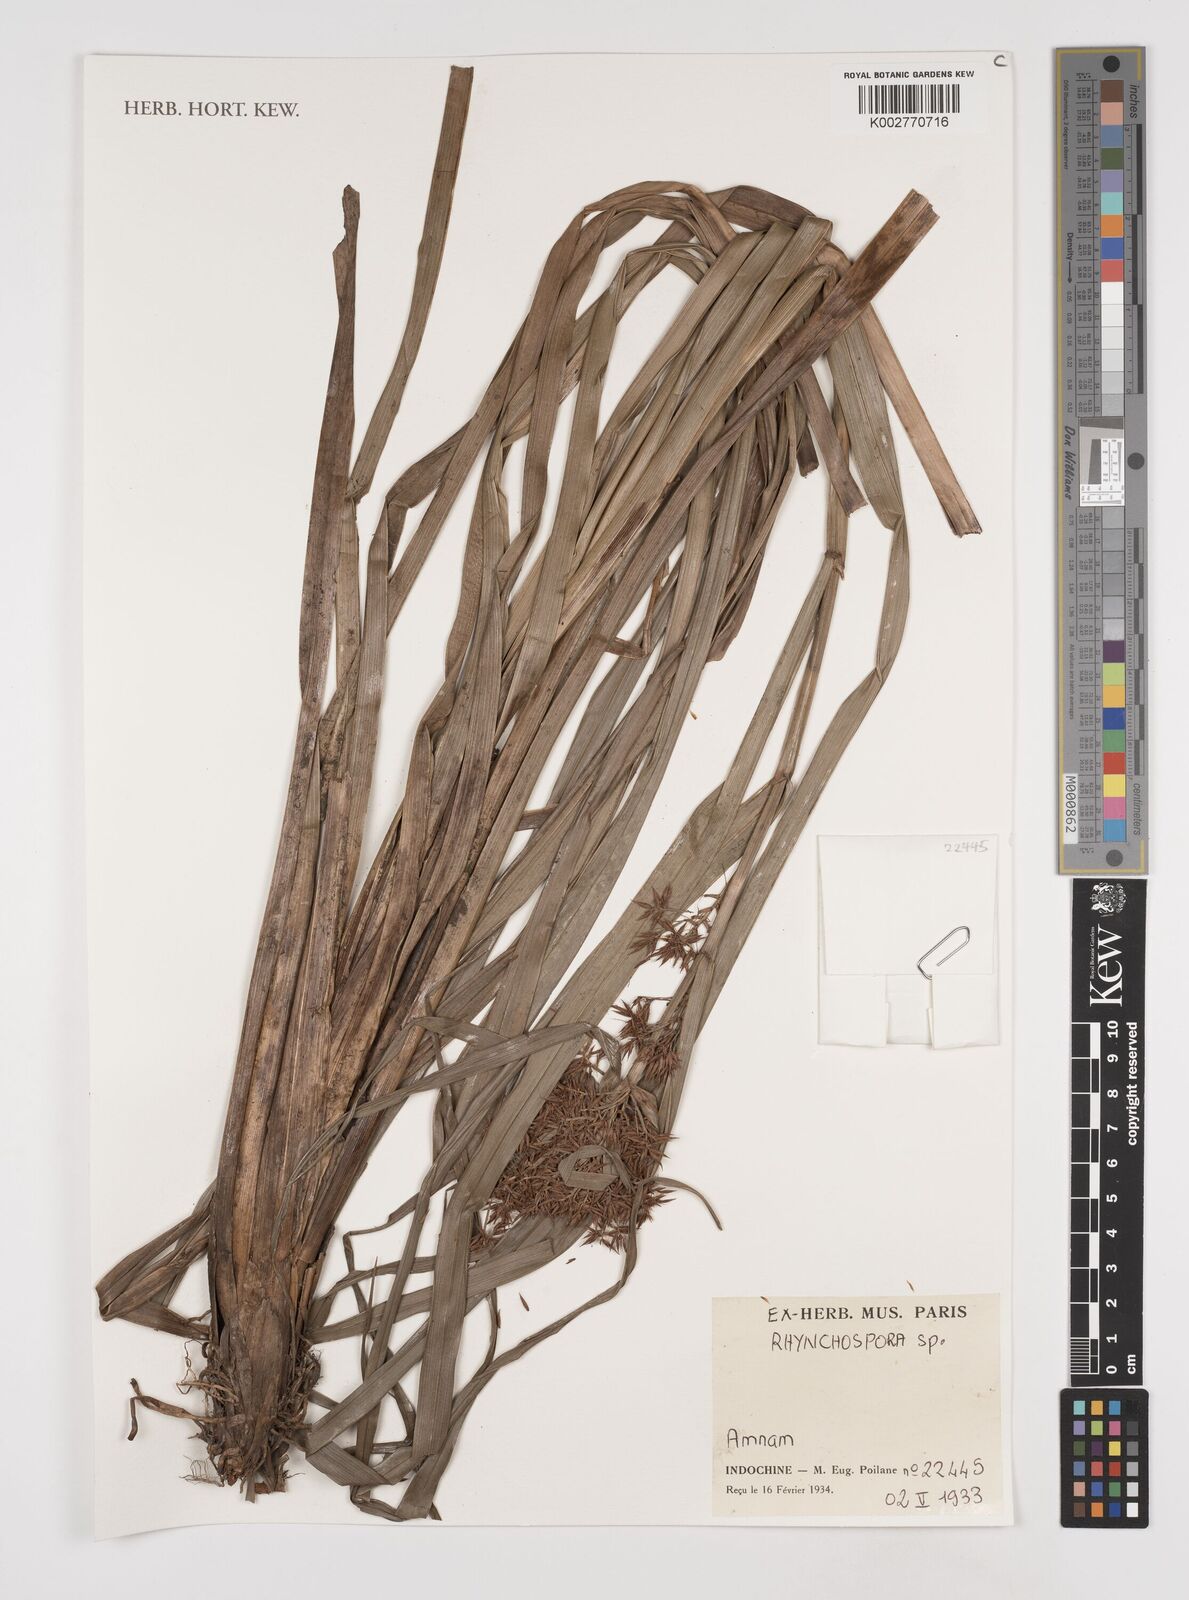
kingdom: Plantae
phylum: Tracheophyta
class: Liliopsida
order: Poales
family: Cyperaceae
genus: Rhynchospora
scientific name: Rhynchospora
